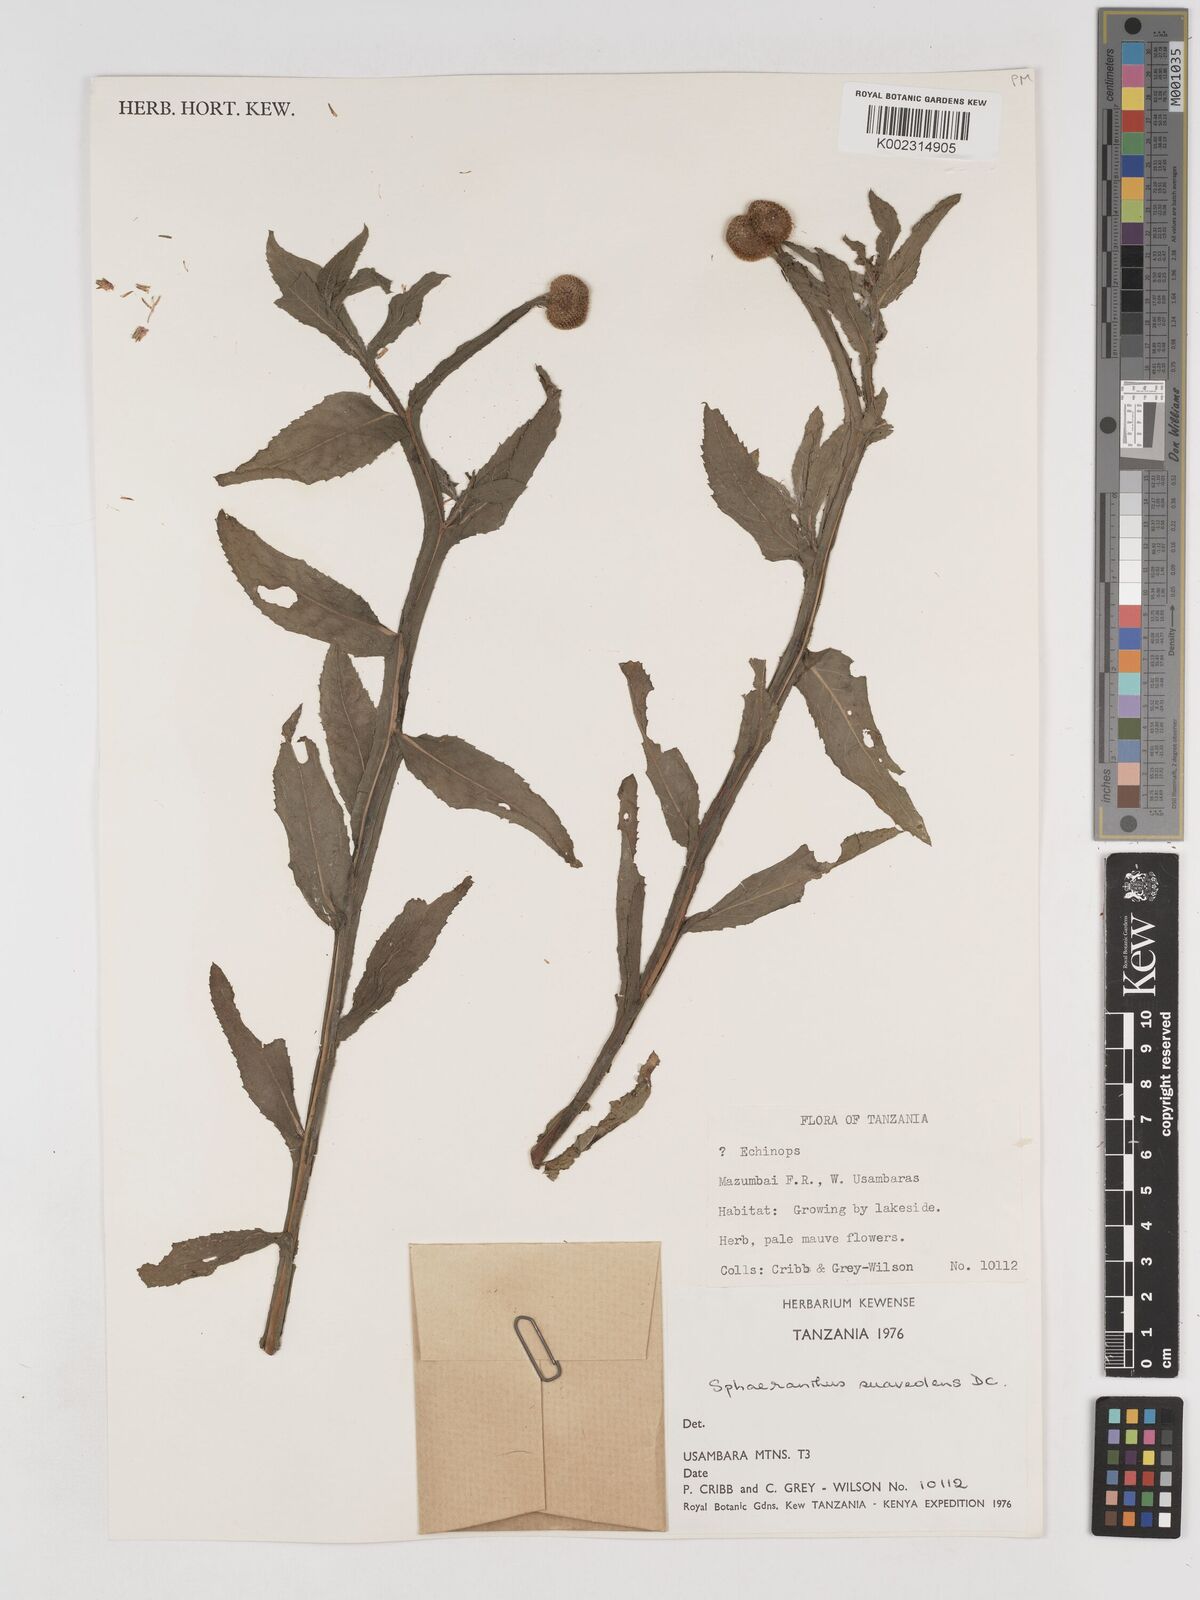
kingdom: Plantae
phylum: Tracheophyta
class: Magnoliopsida
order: Asterales
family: Asteraceae
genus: Sphaeranthus
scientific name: Sphaeranthus suaveolens
